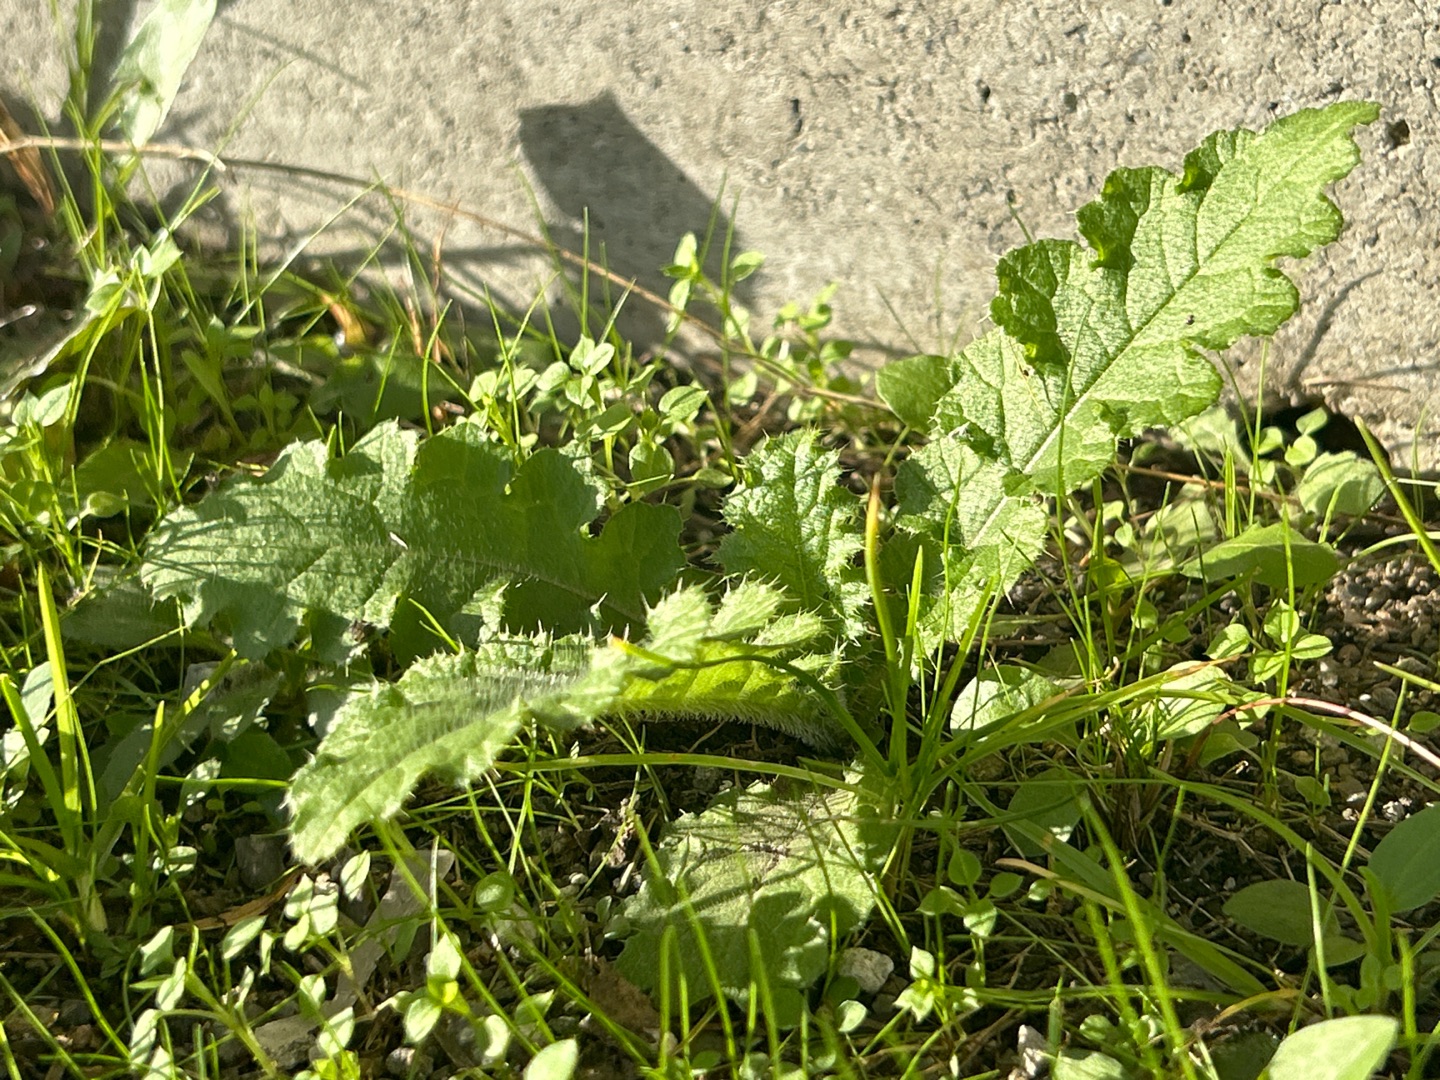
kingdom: Plantae
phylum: Tracheophyta
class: Magnoliopsida
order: Asterales
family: Asteraceae
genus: Cirsium
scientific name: Cirsium vulgare
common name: Horse-tidsel
